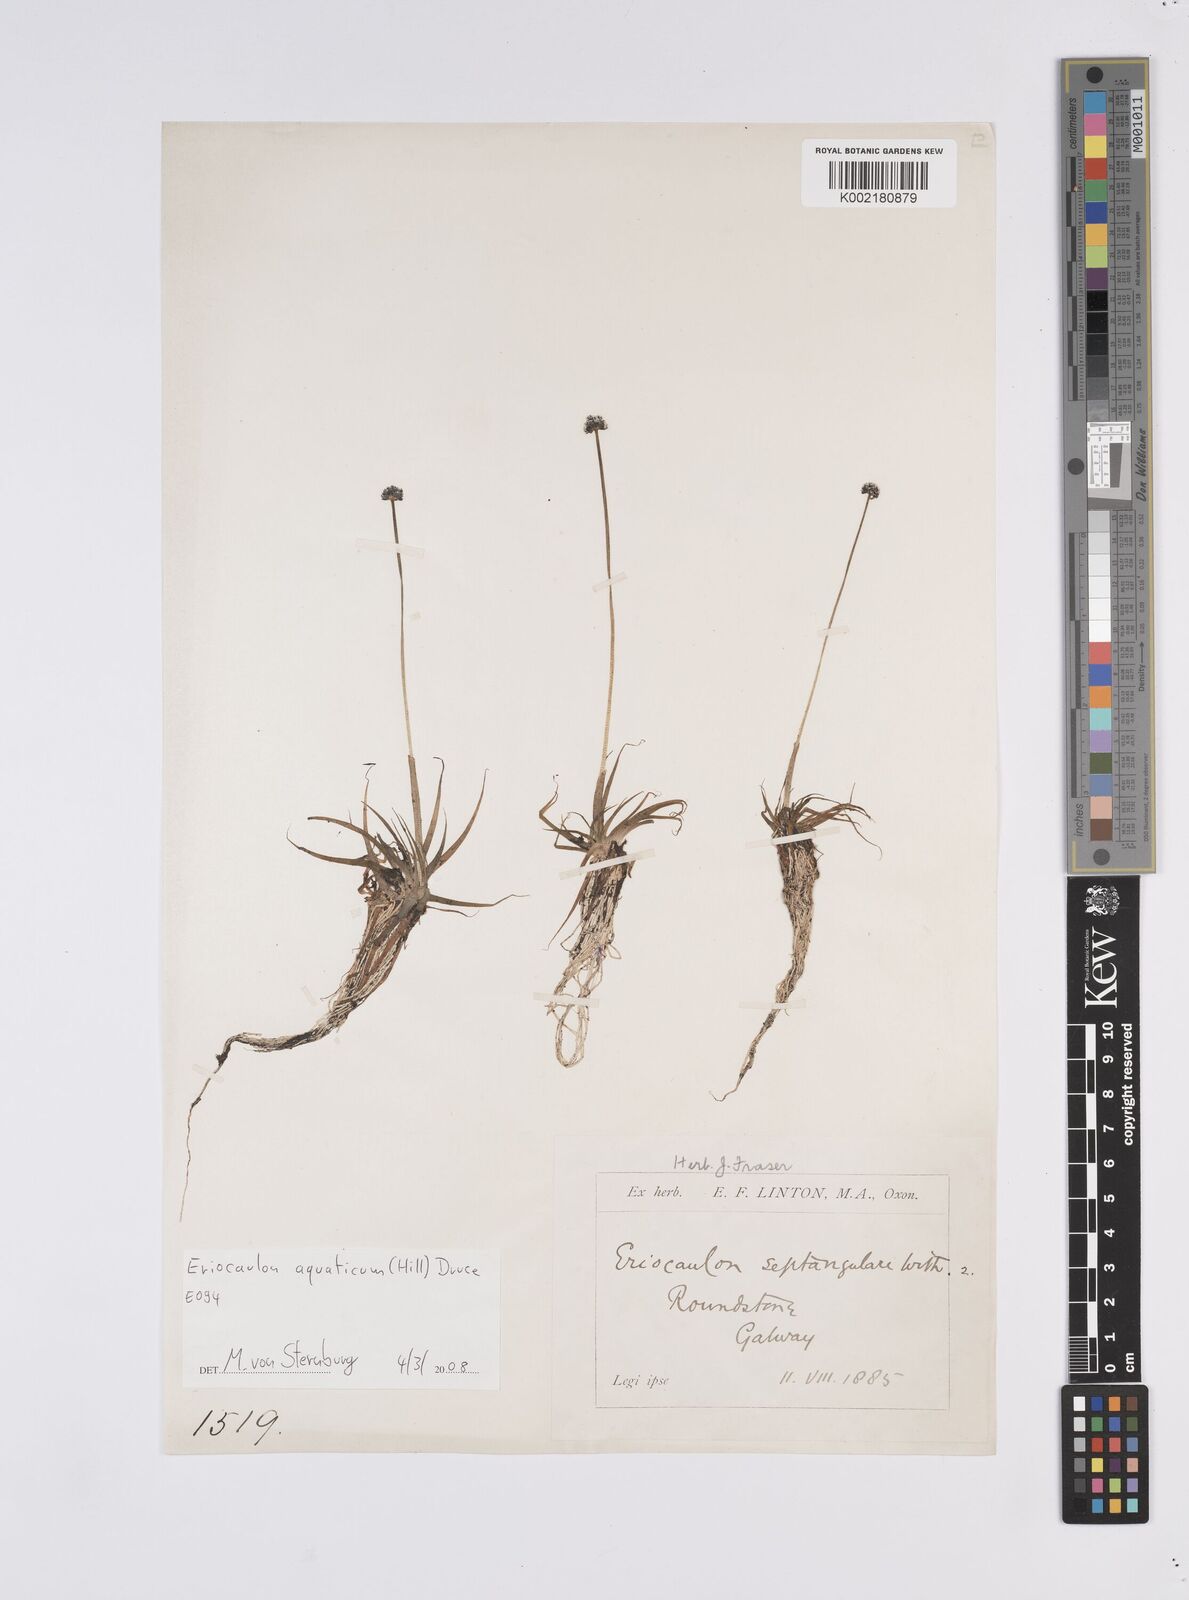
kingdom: Plantae
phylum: Tracheophyta
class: Liliopsida
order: Poales
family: Eriocaulaceae
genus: Eriocaulon
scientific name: Eriocaulon aquaticum
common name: Pipewort
